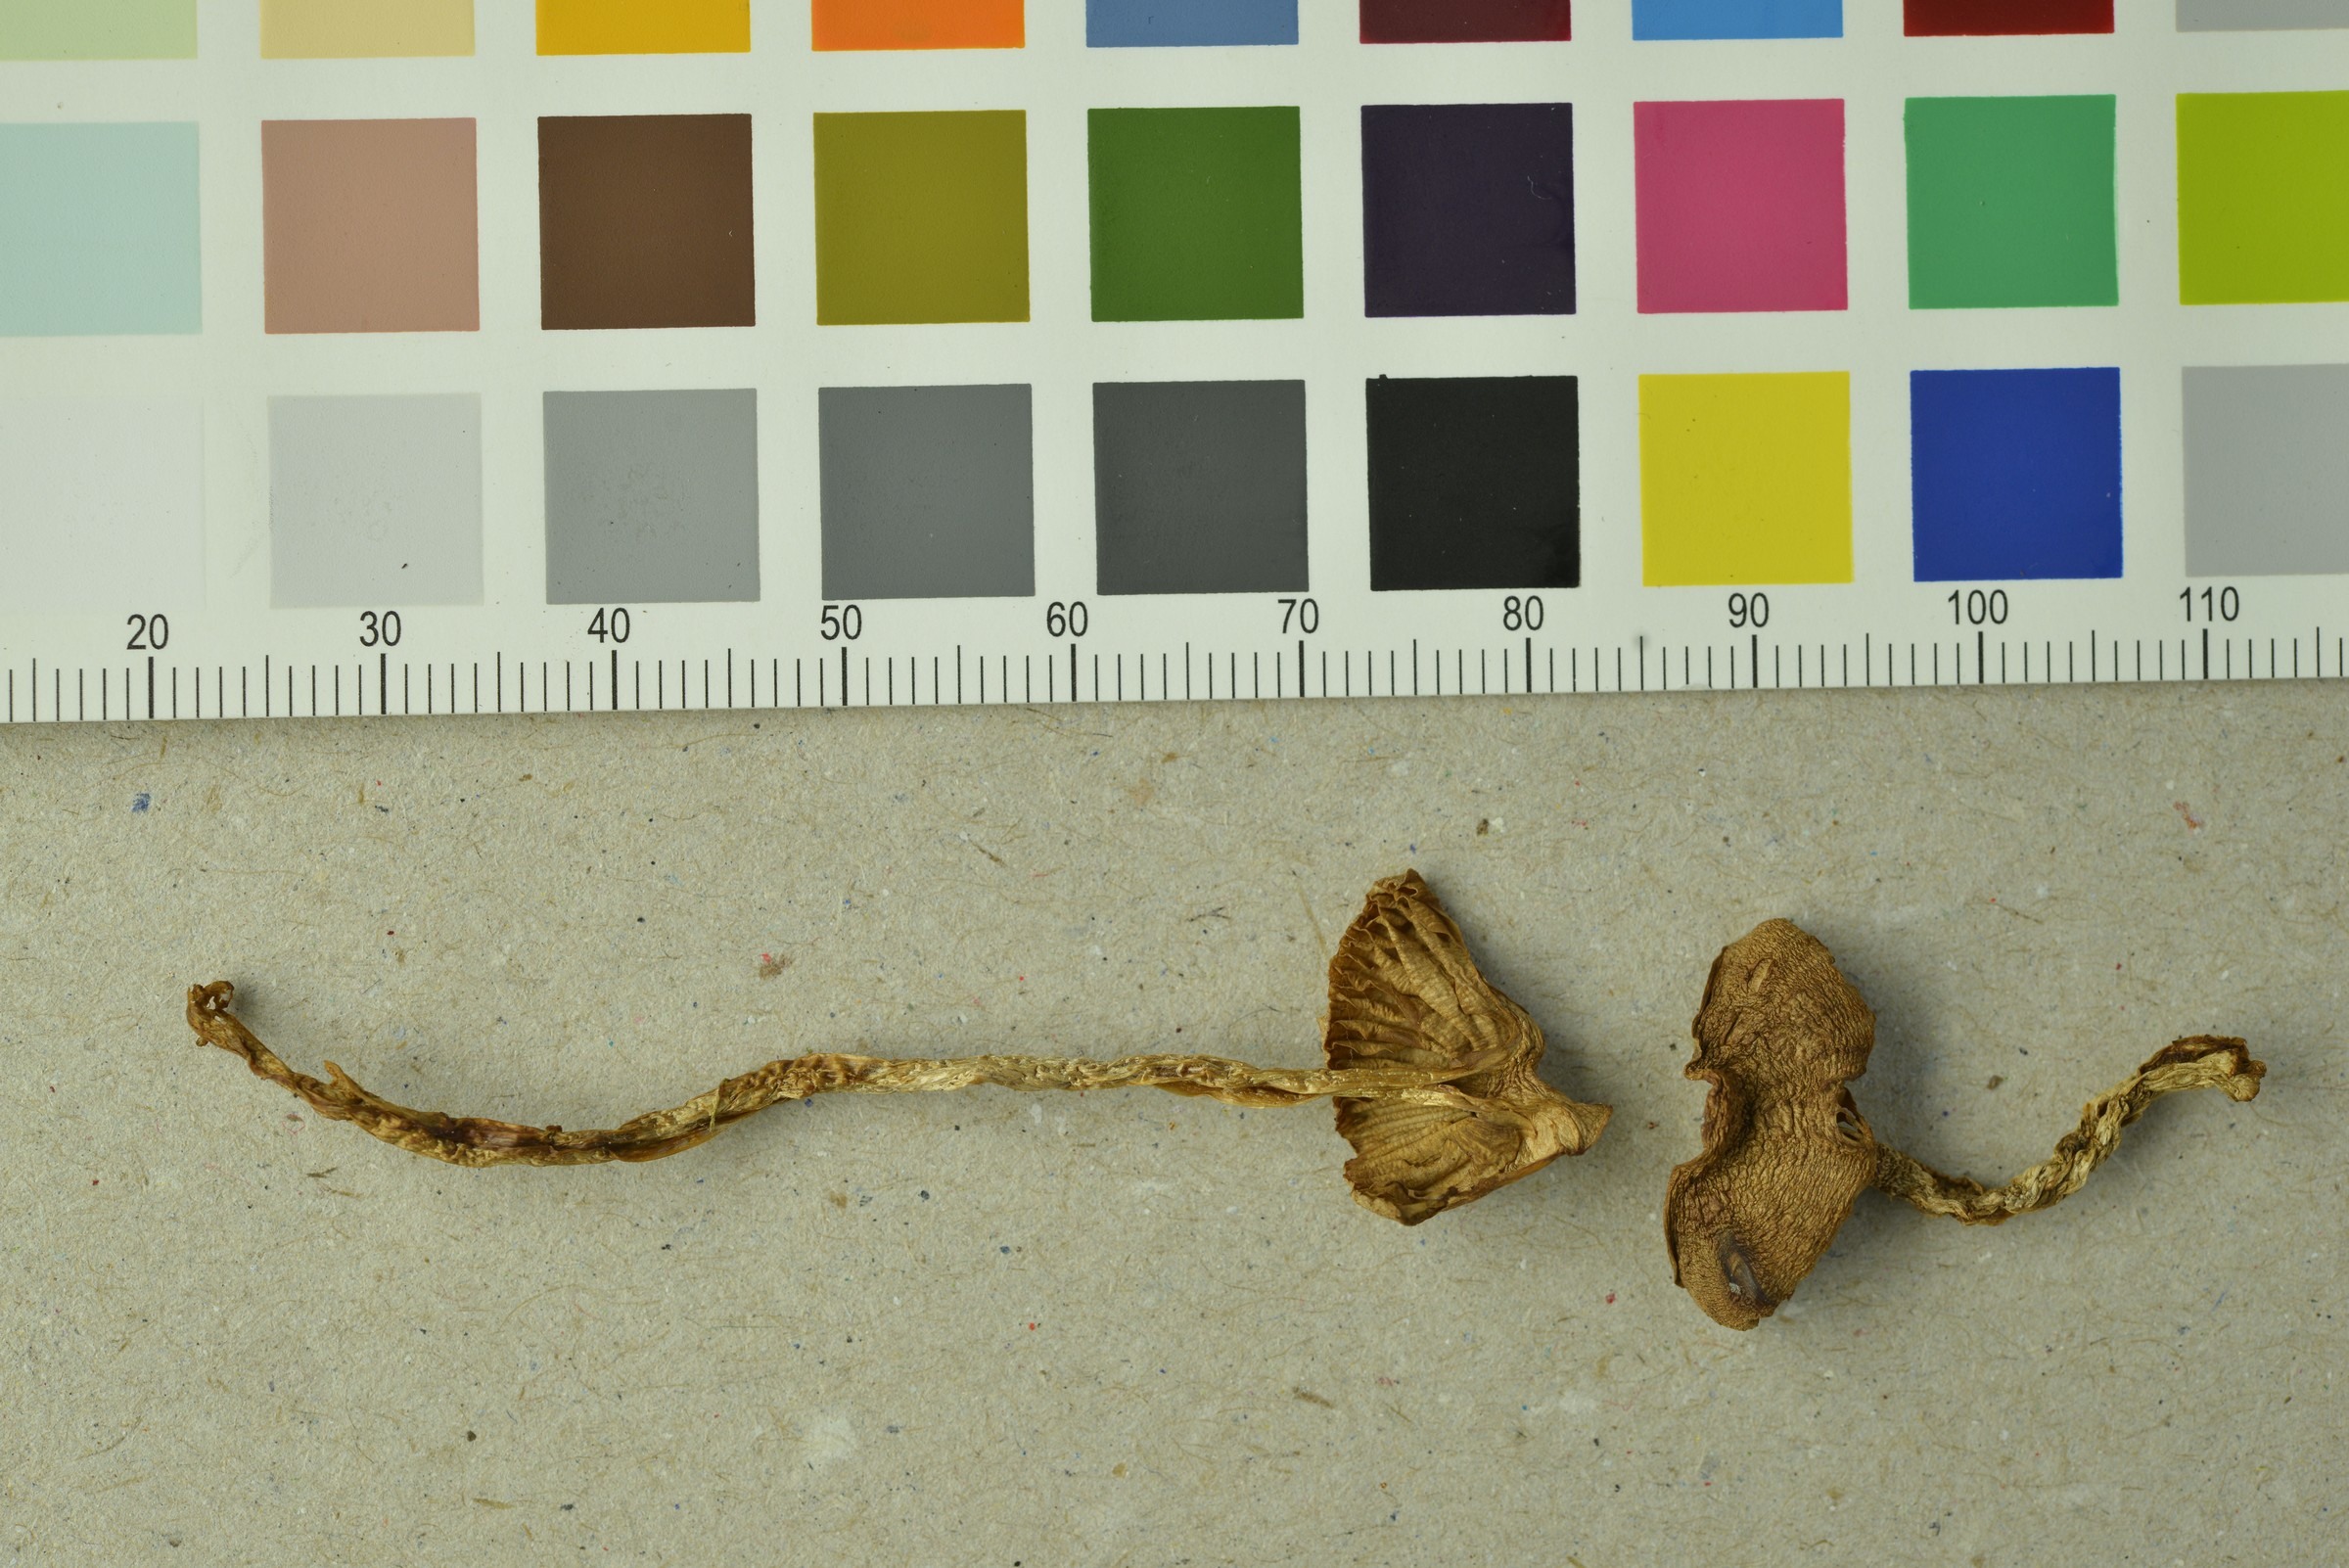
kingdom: Fungi
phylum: Basidiomycota
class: Agaricomycetes
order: Agaricales
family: Cortinariaceae
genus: Cortinarius
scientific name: Cortinarius helvolus
